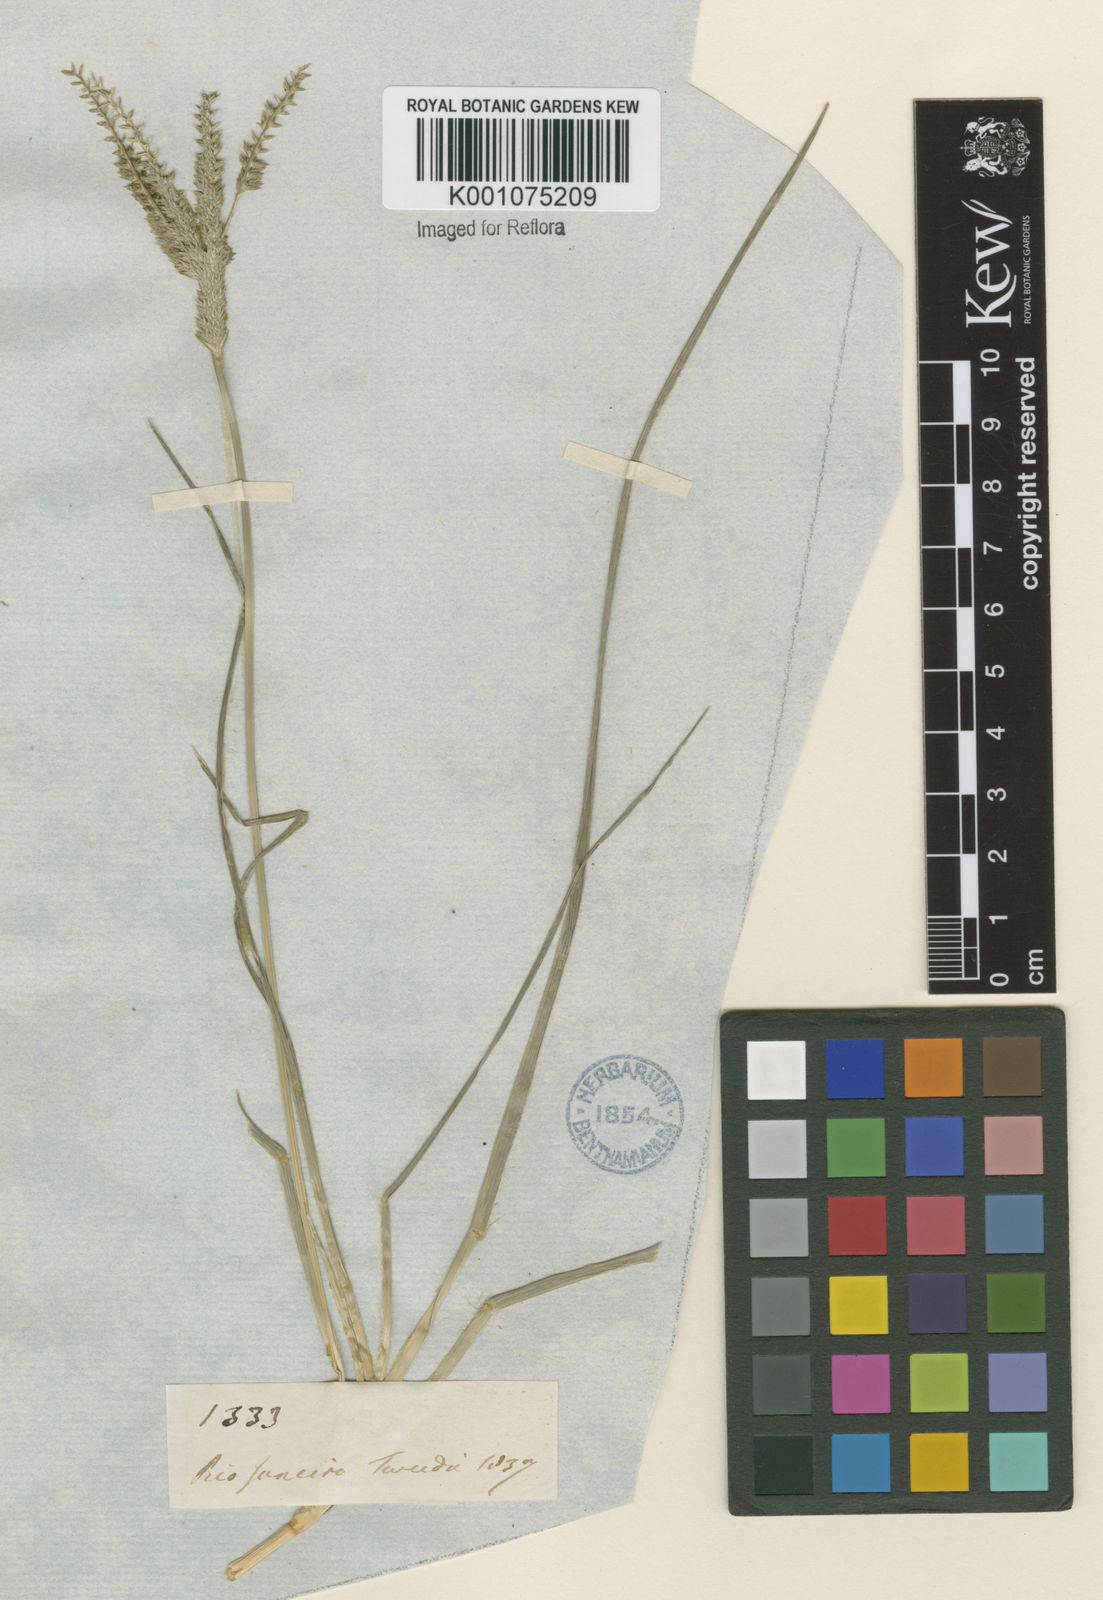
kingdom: Plantae
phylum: Tracheophyta
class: Liliopsida
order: Poales
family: Poaceae
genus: Eleusine
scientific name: Eleusine indica
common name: Yard-grass
